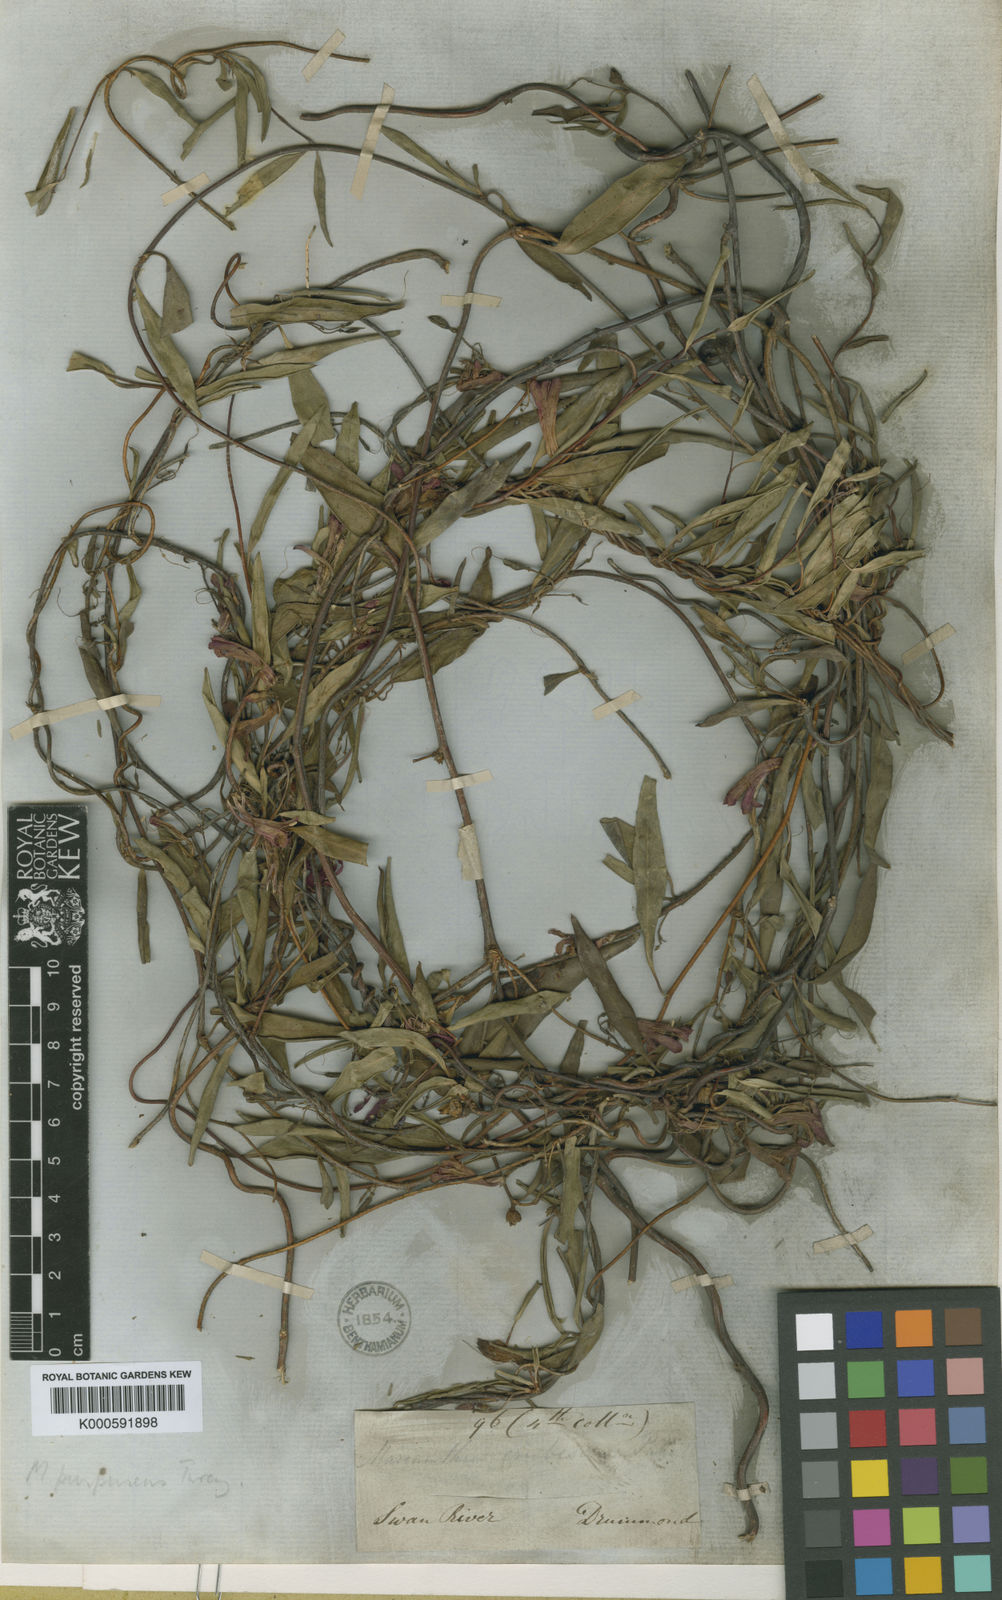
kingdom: Plantae
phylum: Tracheophyta
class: Magnoliopsida
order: Apiales
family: Pittosporaceae
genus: Marianthus
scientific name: Marianthus erubescens
